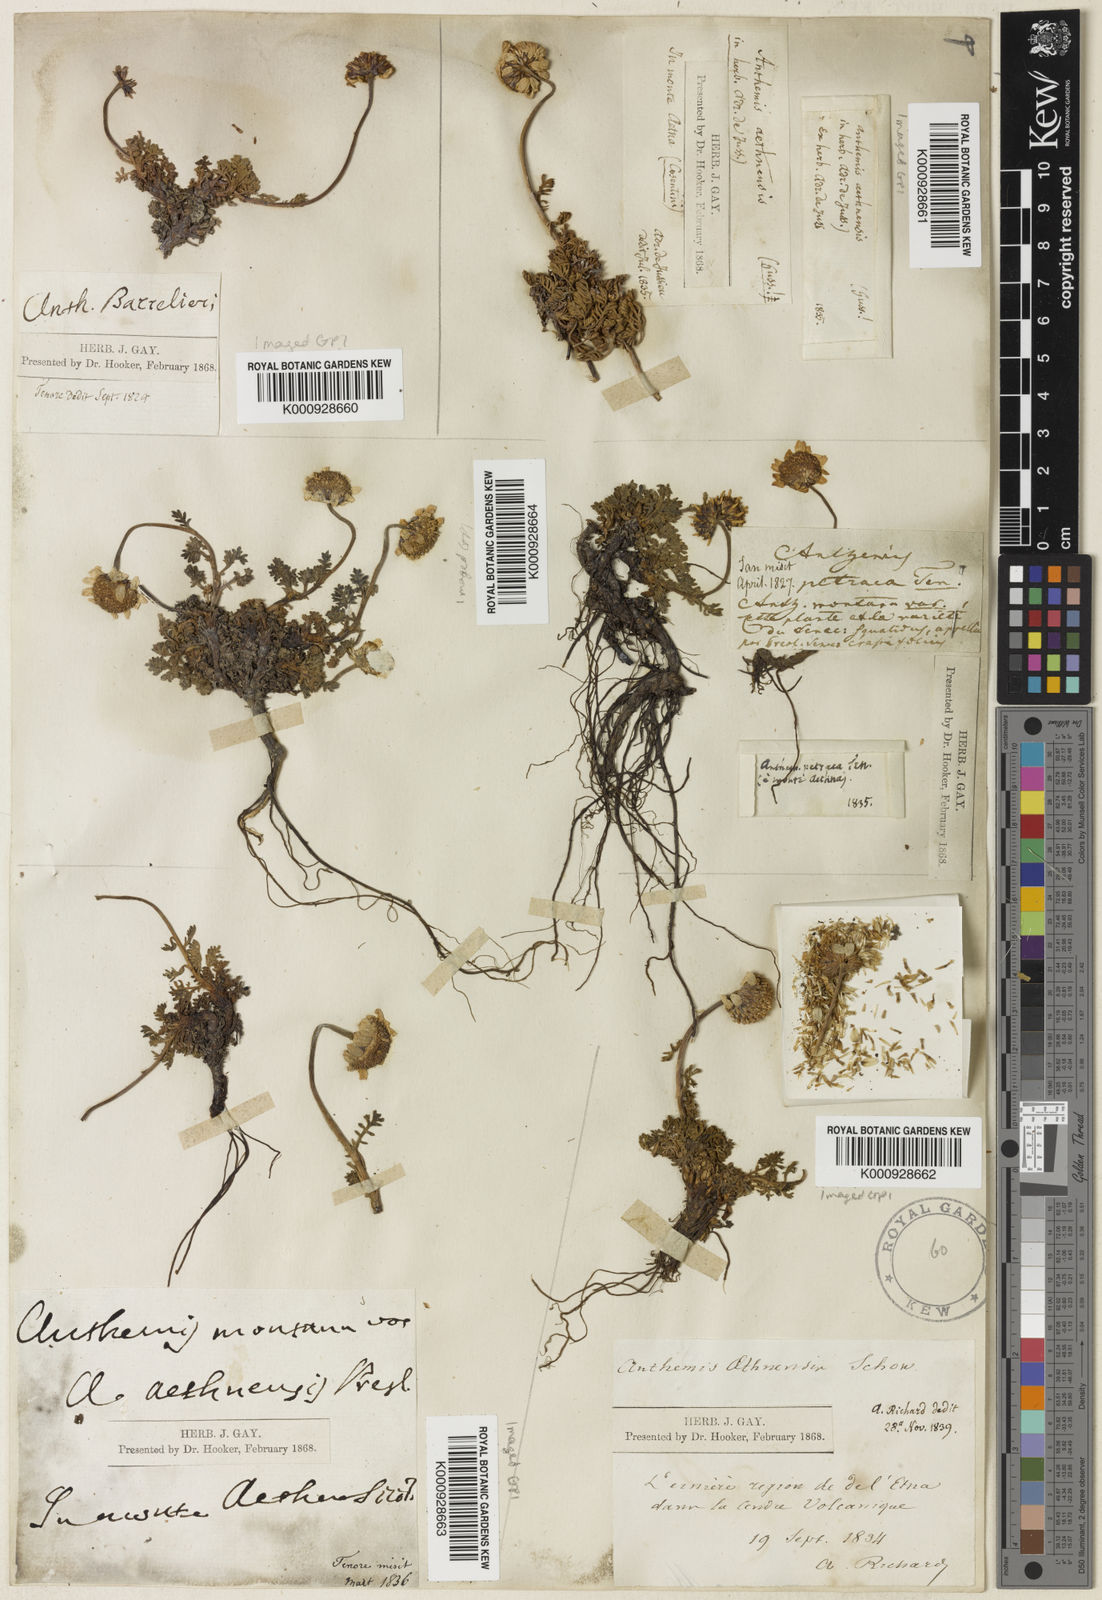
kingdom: Plantae
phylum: Tracheophyta
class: Magnoliopsida
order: Asterales
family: Asteraceae
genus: Anthemis
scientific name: Anthemis aetnensis
